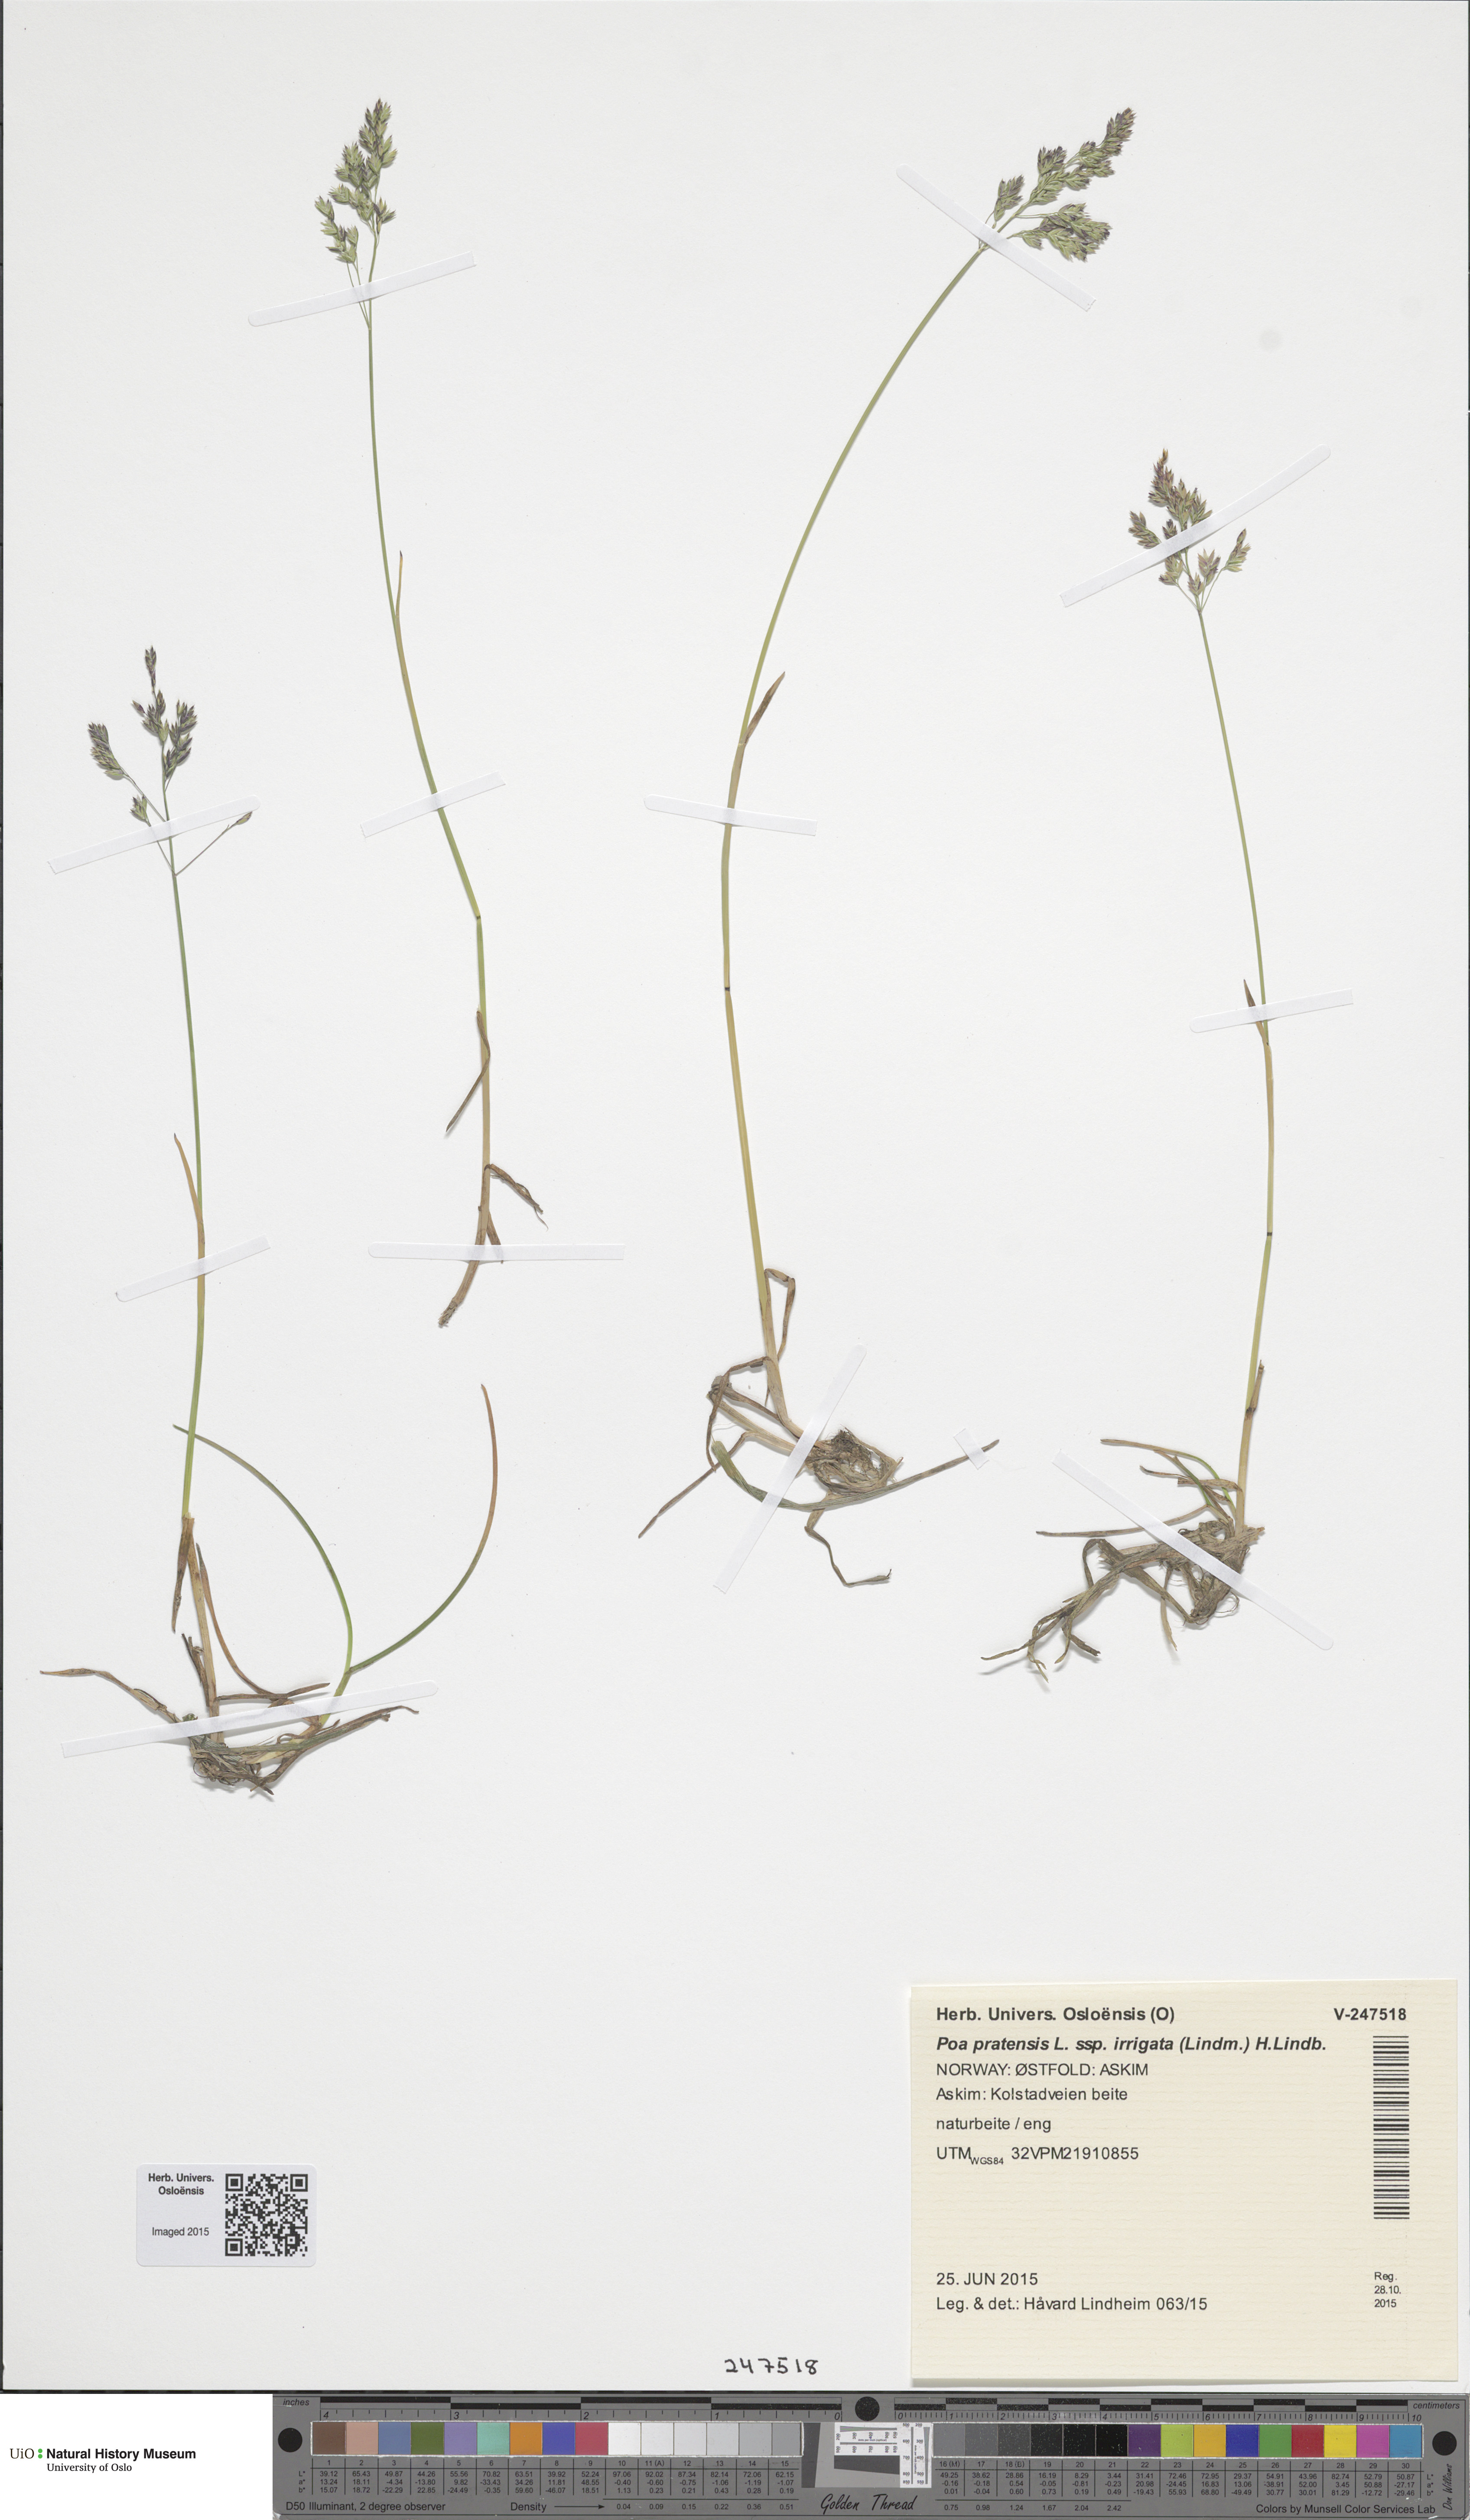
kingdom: Plantae
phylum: Tracheophyta
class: Liliopsida
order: Poales
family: Poaceae
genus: Poa
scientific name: Poa humilis
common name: Spreading meadow-grass
